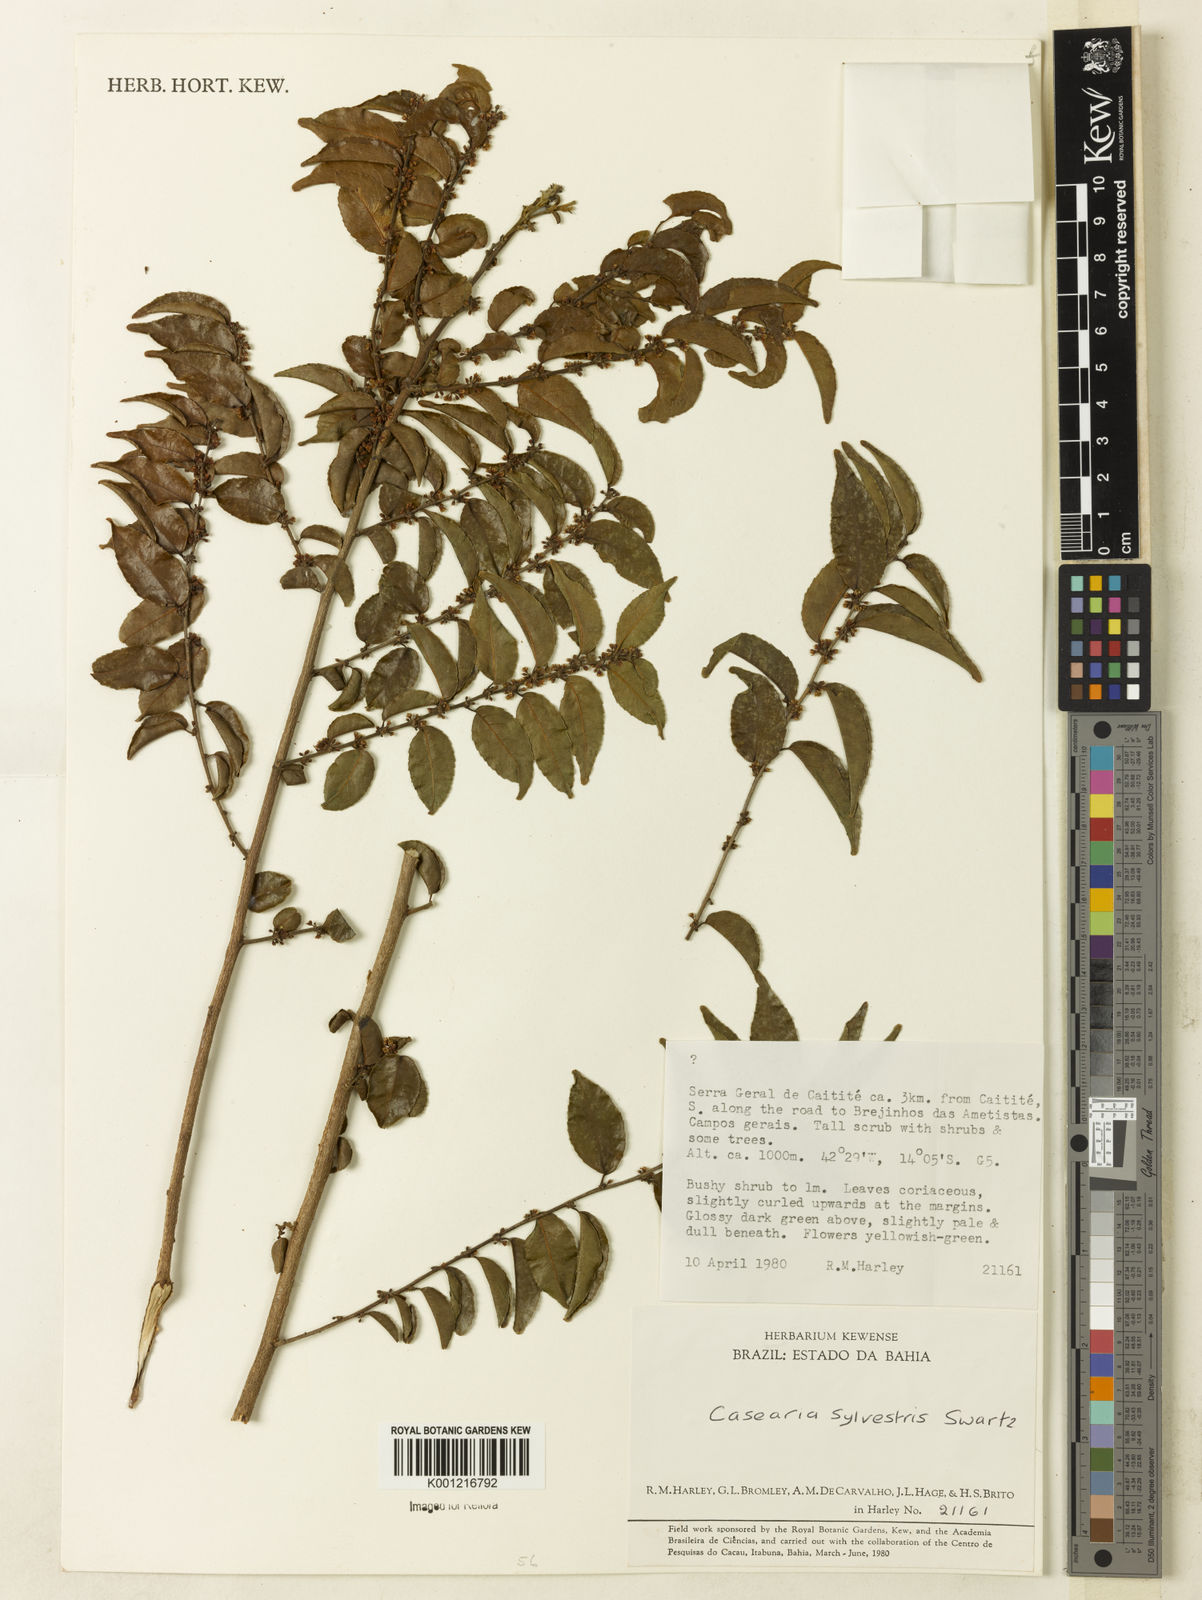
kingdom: Plantae
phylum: Tracheophyta
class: Magnoliopsida
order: Malpighiales
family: Salicaceae
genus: Casearia
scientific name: Casearia sylvestris
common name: Wild sage
